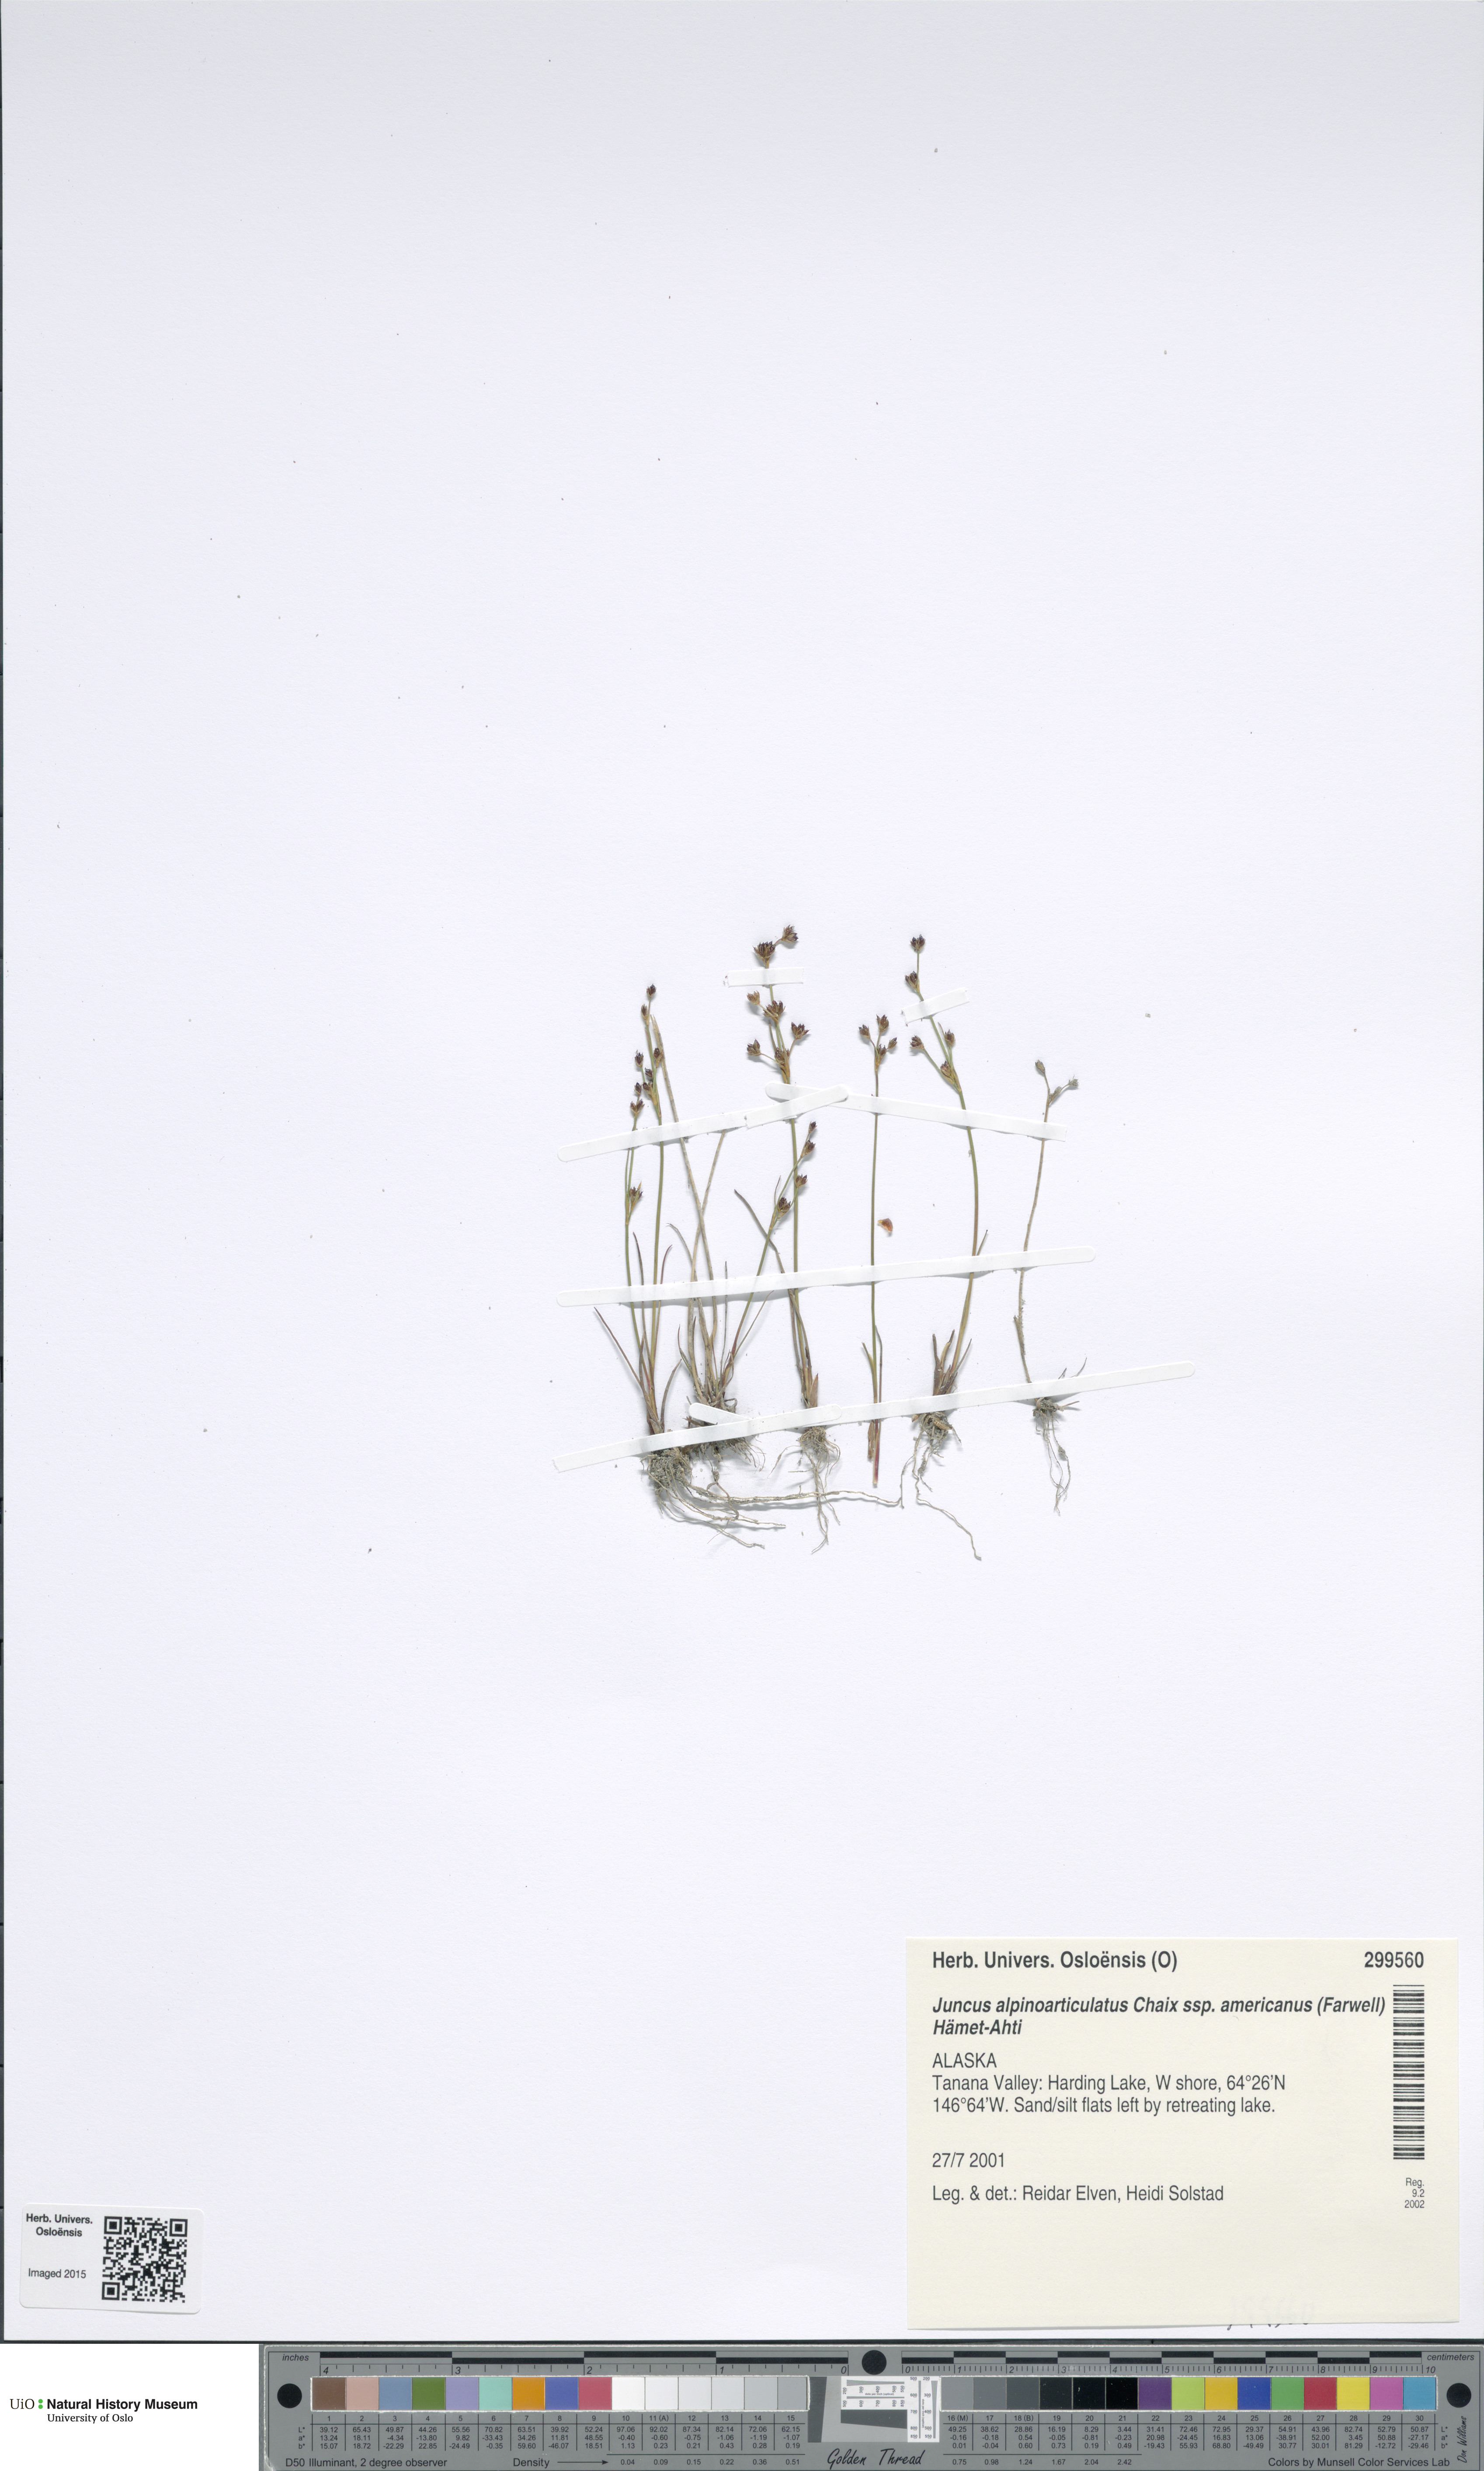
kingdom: Plantae
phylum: Tracheophyta
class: Liliopsida
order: Poales
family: Juncaceae
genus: Juncus
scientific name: Juncus alpinoarticulatus
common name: Alpine rush
